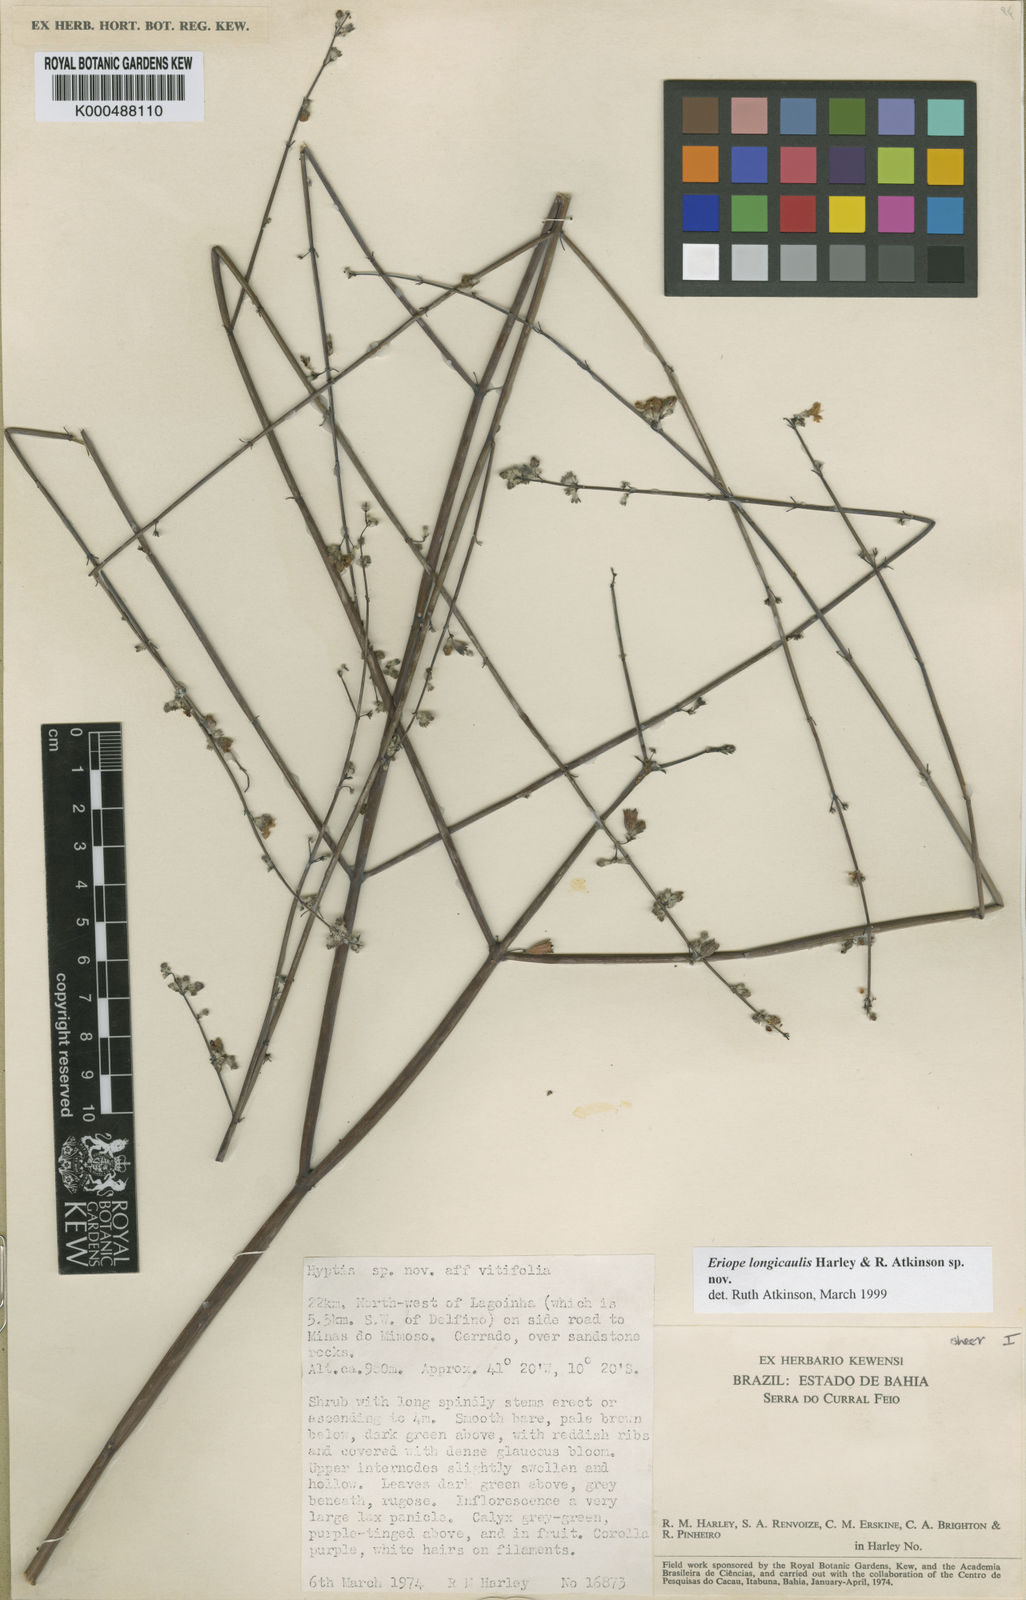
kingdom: Plantae
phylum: Tracheophyta
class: Magnoliopsida
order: Lamiales
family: Lamiaceae
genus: Hypenia
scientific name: Hypenia
